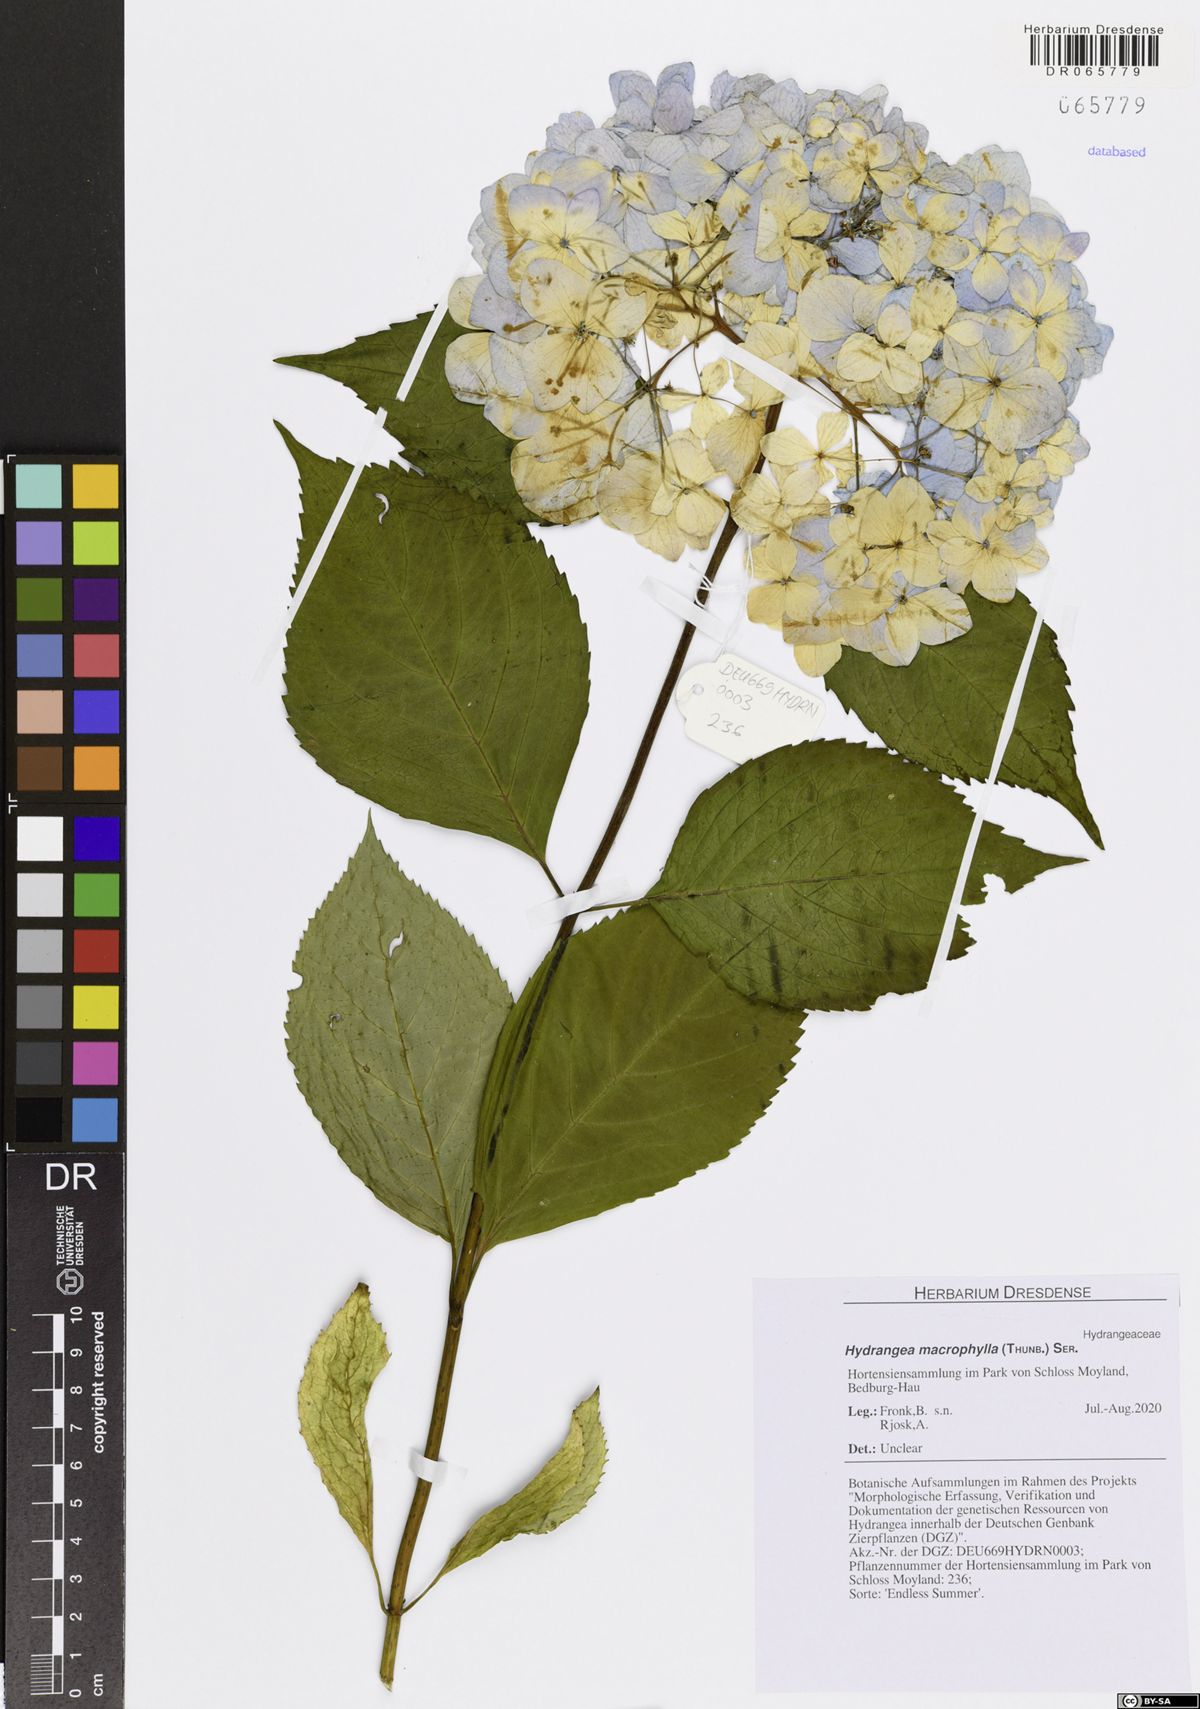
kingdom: Plantae
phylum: Tracheophyta
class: Magnoliopsida
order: Cornales
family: Hydrangeaceae
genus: Hydrangea
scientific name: Hydrangea macrophylla
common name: Hydrangea
